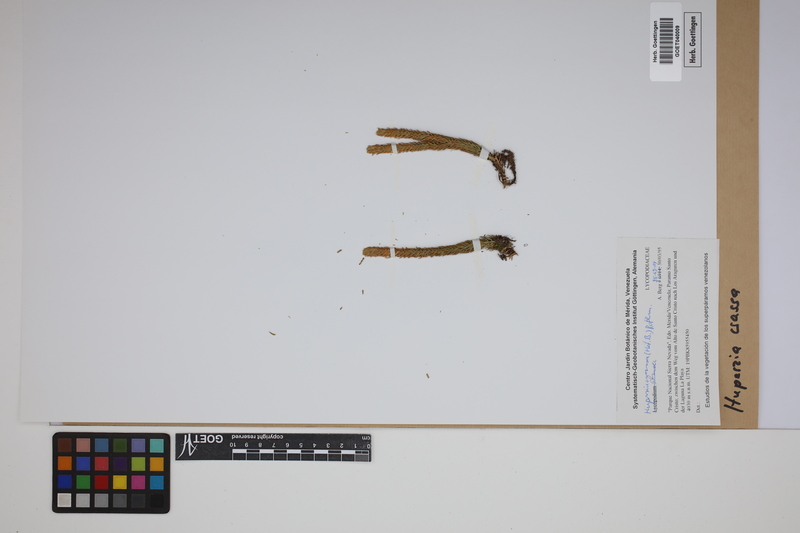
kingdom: Plantae
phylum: Tracheophyta
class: Lycopodiopsida
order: Lycopodiales
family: Lycopodiaceae
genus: Phlegmariurus
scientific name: Phlegmariurus crassus
